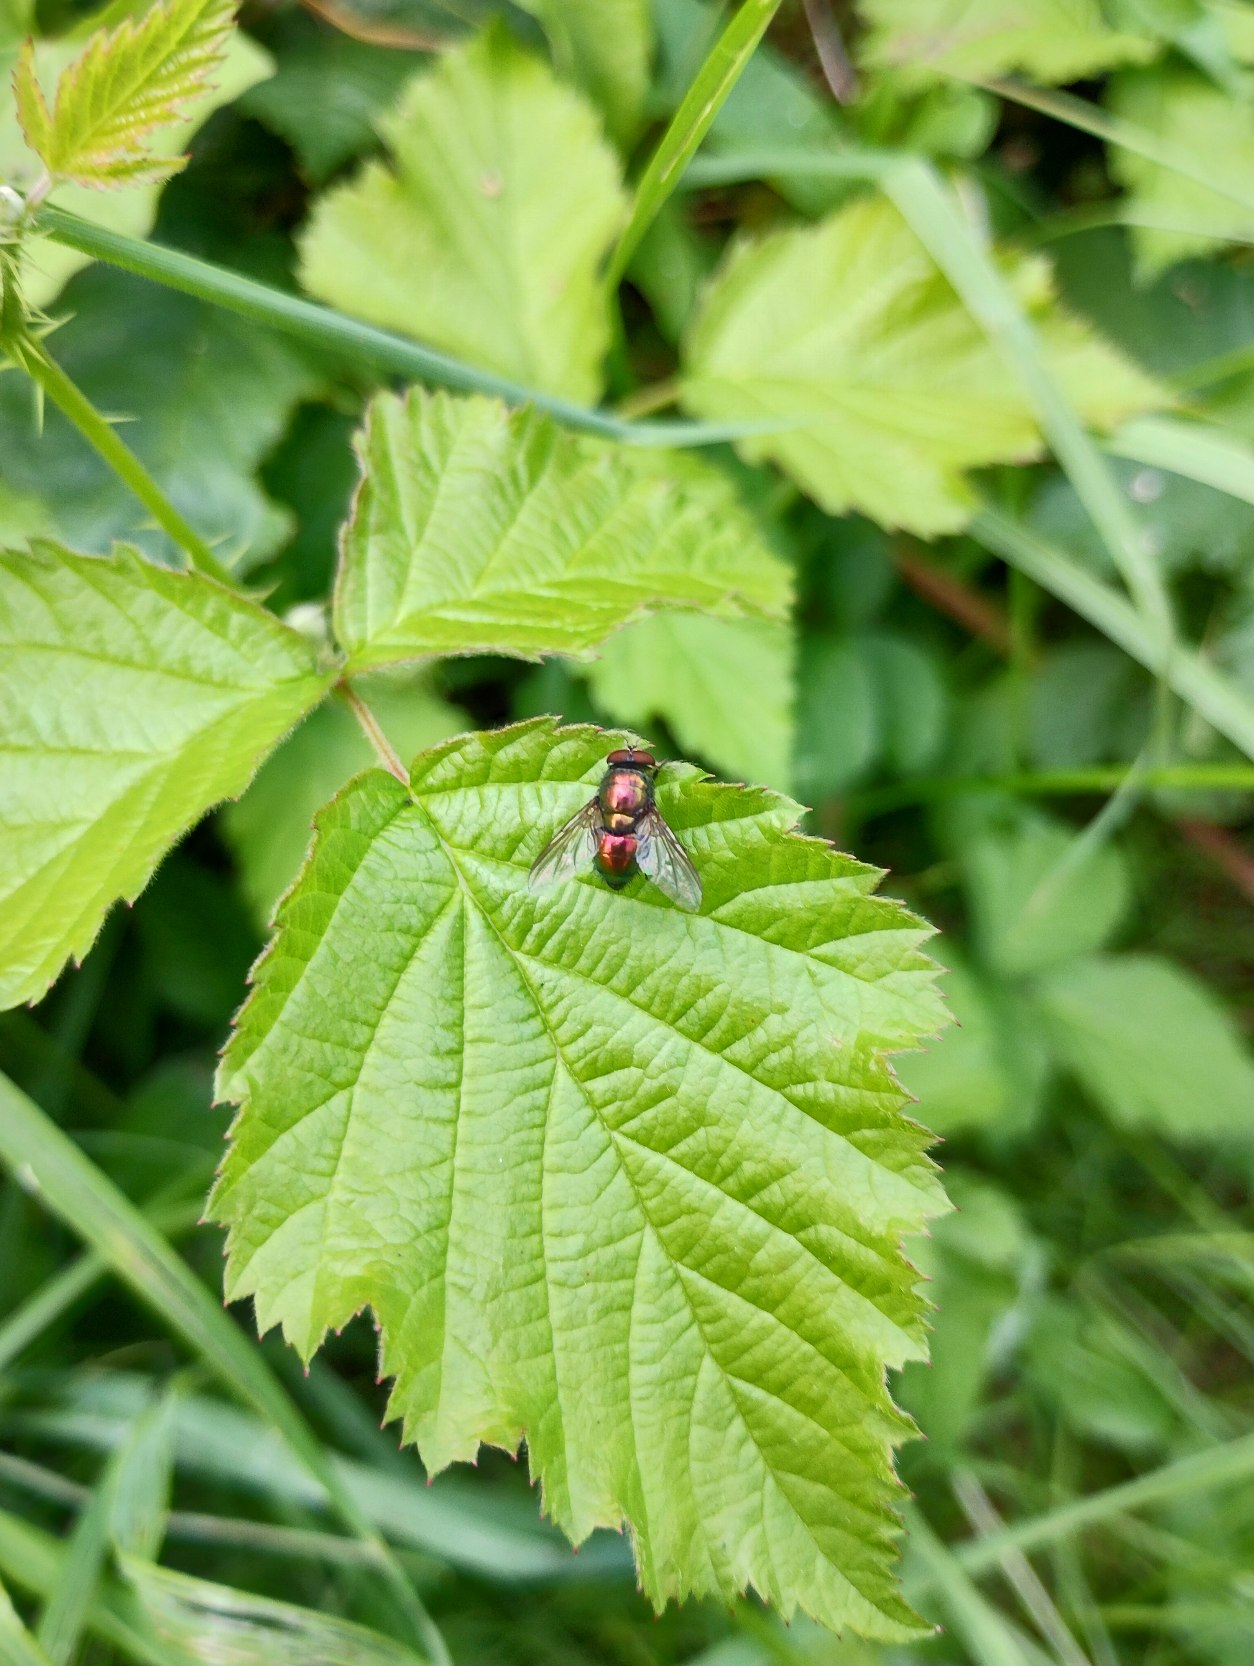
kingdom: Animalia
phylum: Arthropoda
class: Insecta
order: Diptera
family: Calliphoridae
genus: Lucilia
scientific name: Lucilia
